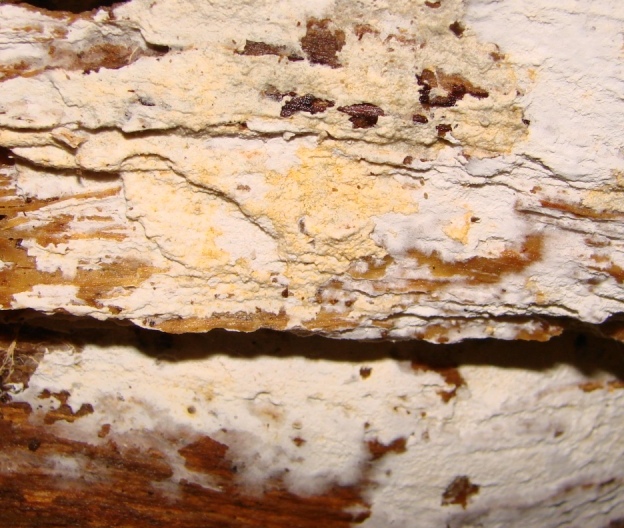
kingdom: Fungi
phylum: Basidiomycota
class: Agaricomycetes
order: Atheliales
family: Atheliaceae
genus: Leptosporomyces
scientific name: Leptosporomyces fuscostratus
